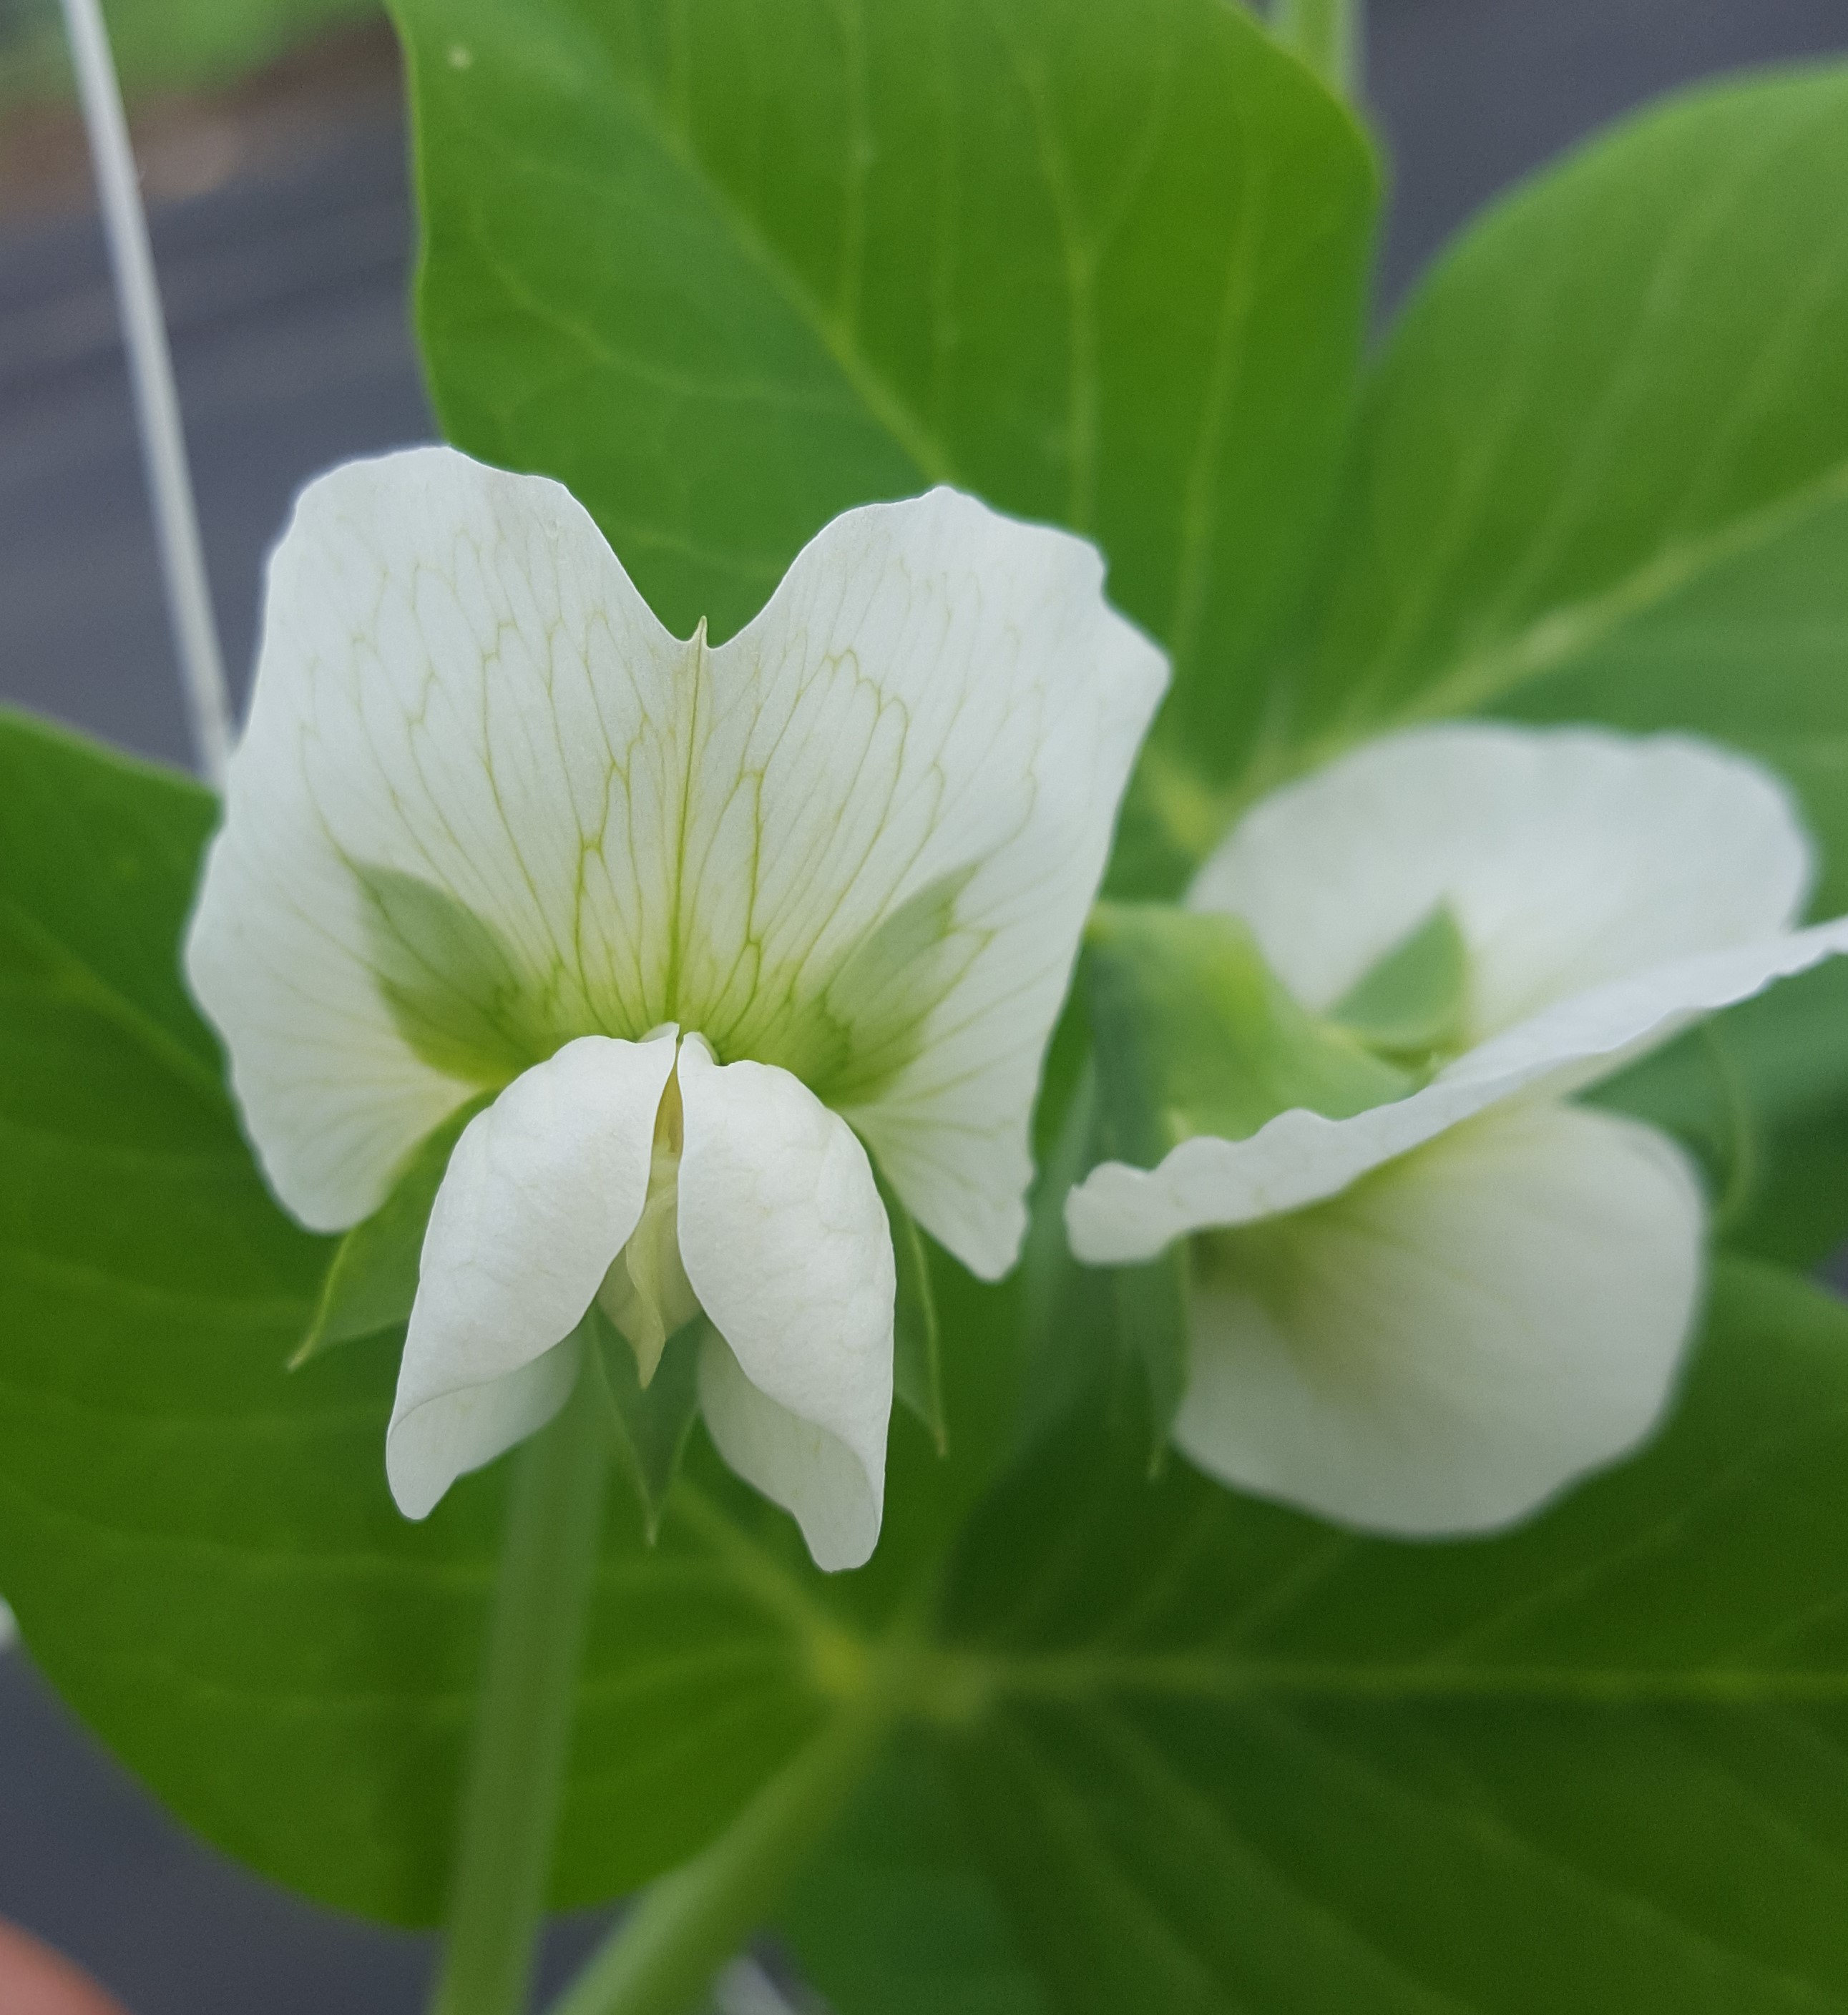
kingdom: Plantae
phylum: Tracheophyta
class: Magnoliopsida
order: Fabales
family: Fabaceae
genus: Lathyrus
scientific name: Lathyrus oleraceus
